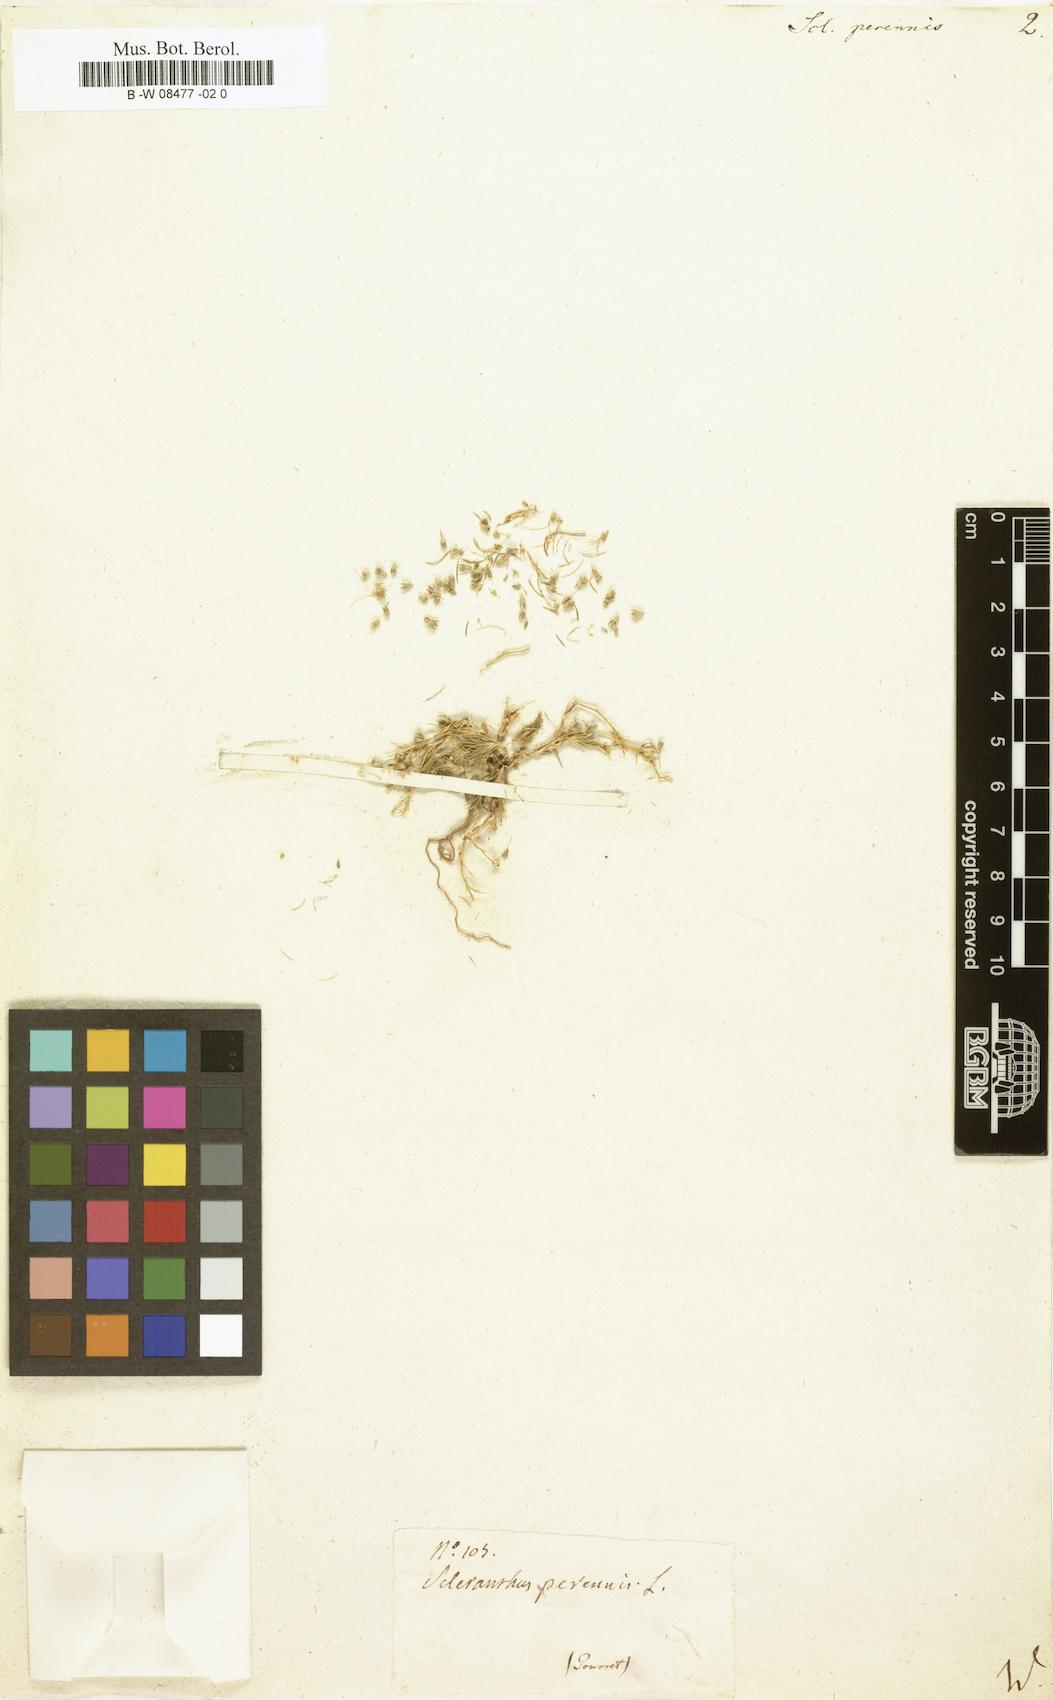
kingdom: Plantae
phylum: Tracheophyta
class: Magnoliopsida
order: Caryophyllales
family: Caryophyllaceae
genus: Scleranthus
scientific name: Scleranthus perennis
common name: Perennial knawel
